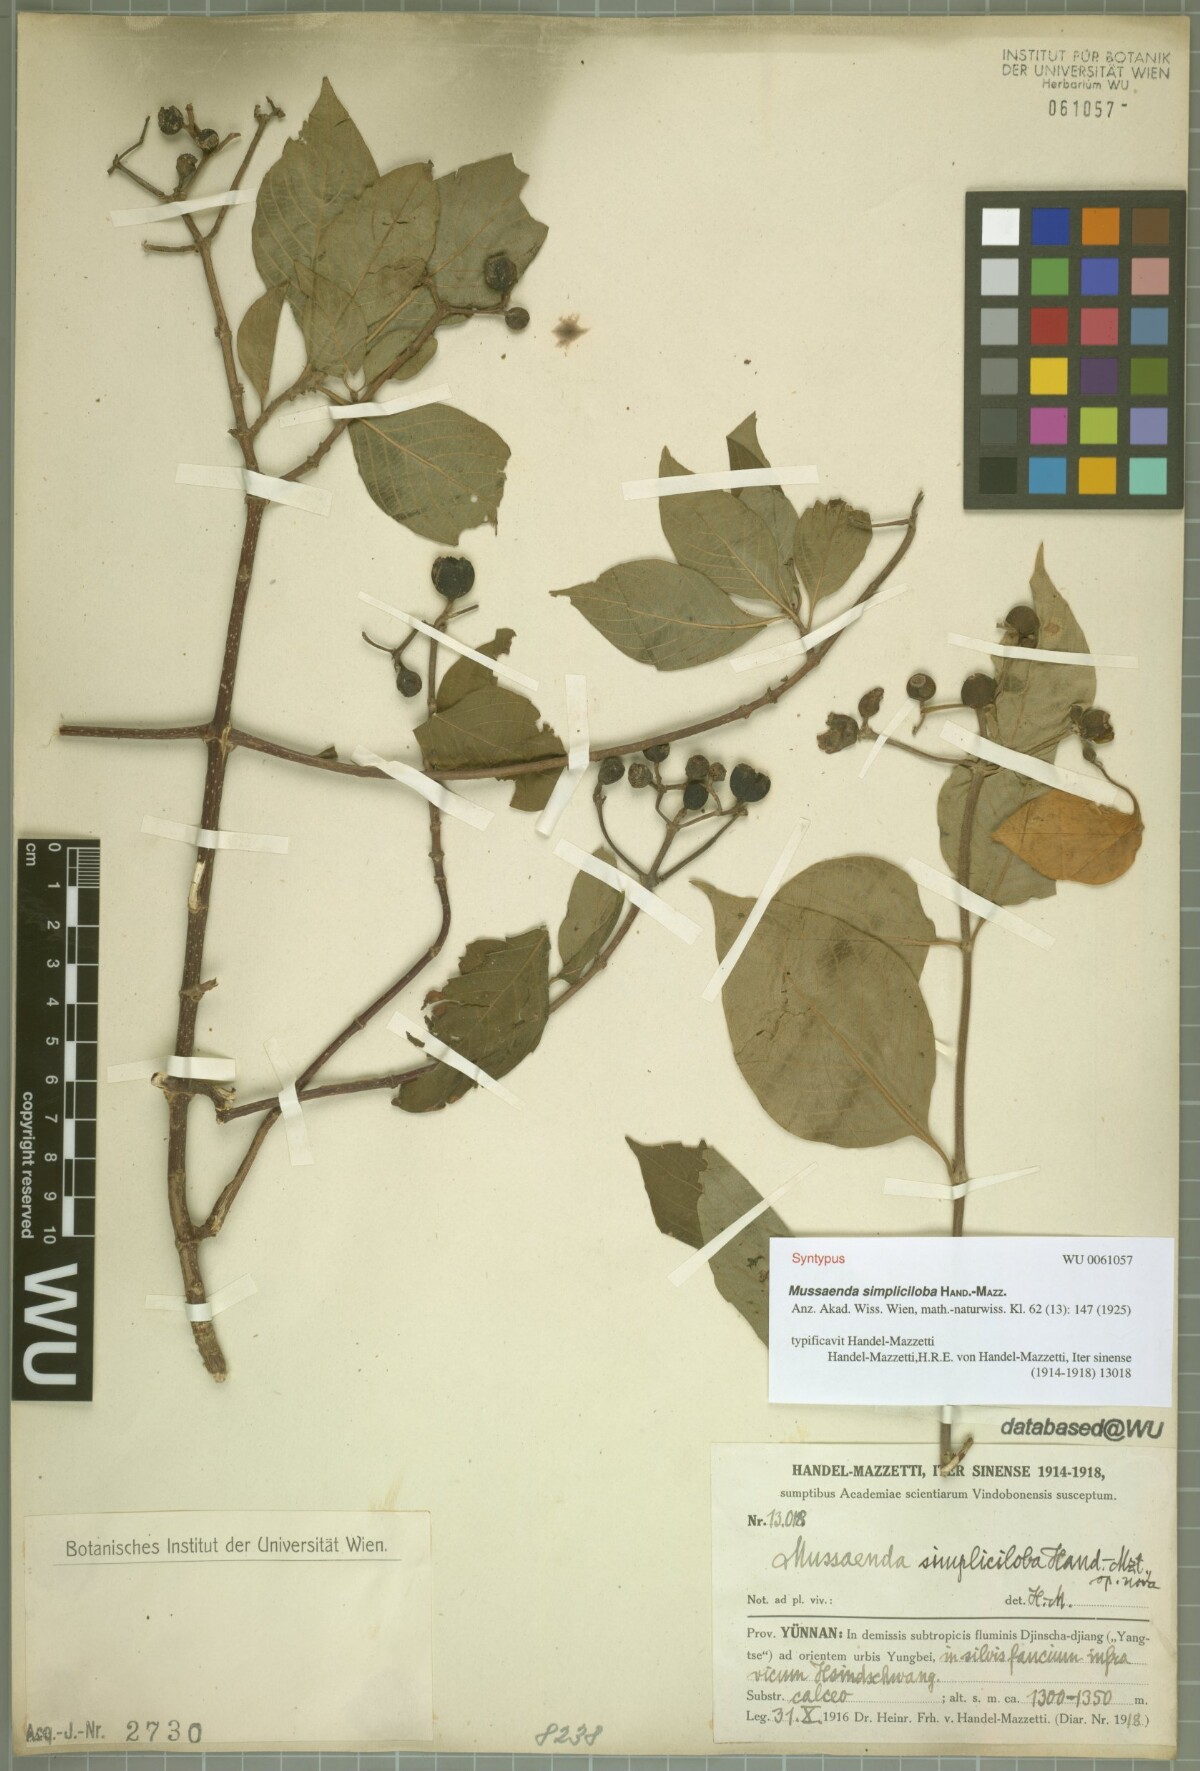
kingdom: Plantae
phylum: Tracheophyta
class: Magnoliopsida
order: Gentianales
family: Rubiaceae
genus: Mussaenda
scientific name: Mussaenda simpliciloba
